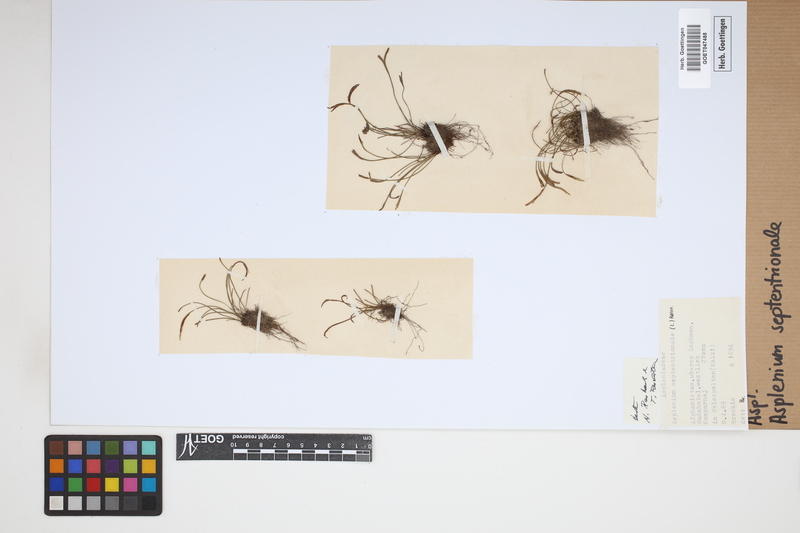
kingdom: Plantae
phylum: Tracheophyta
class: Polypodiopsida
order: Polypodiales
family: Aspleniaceae
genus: Asplenium
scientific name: Asplenium septentrionale
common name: Forked spleenwort
